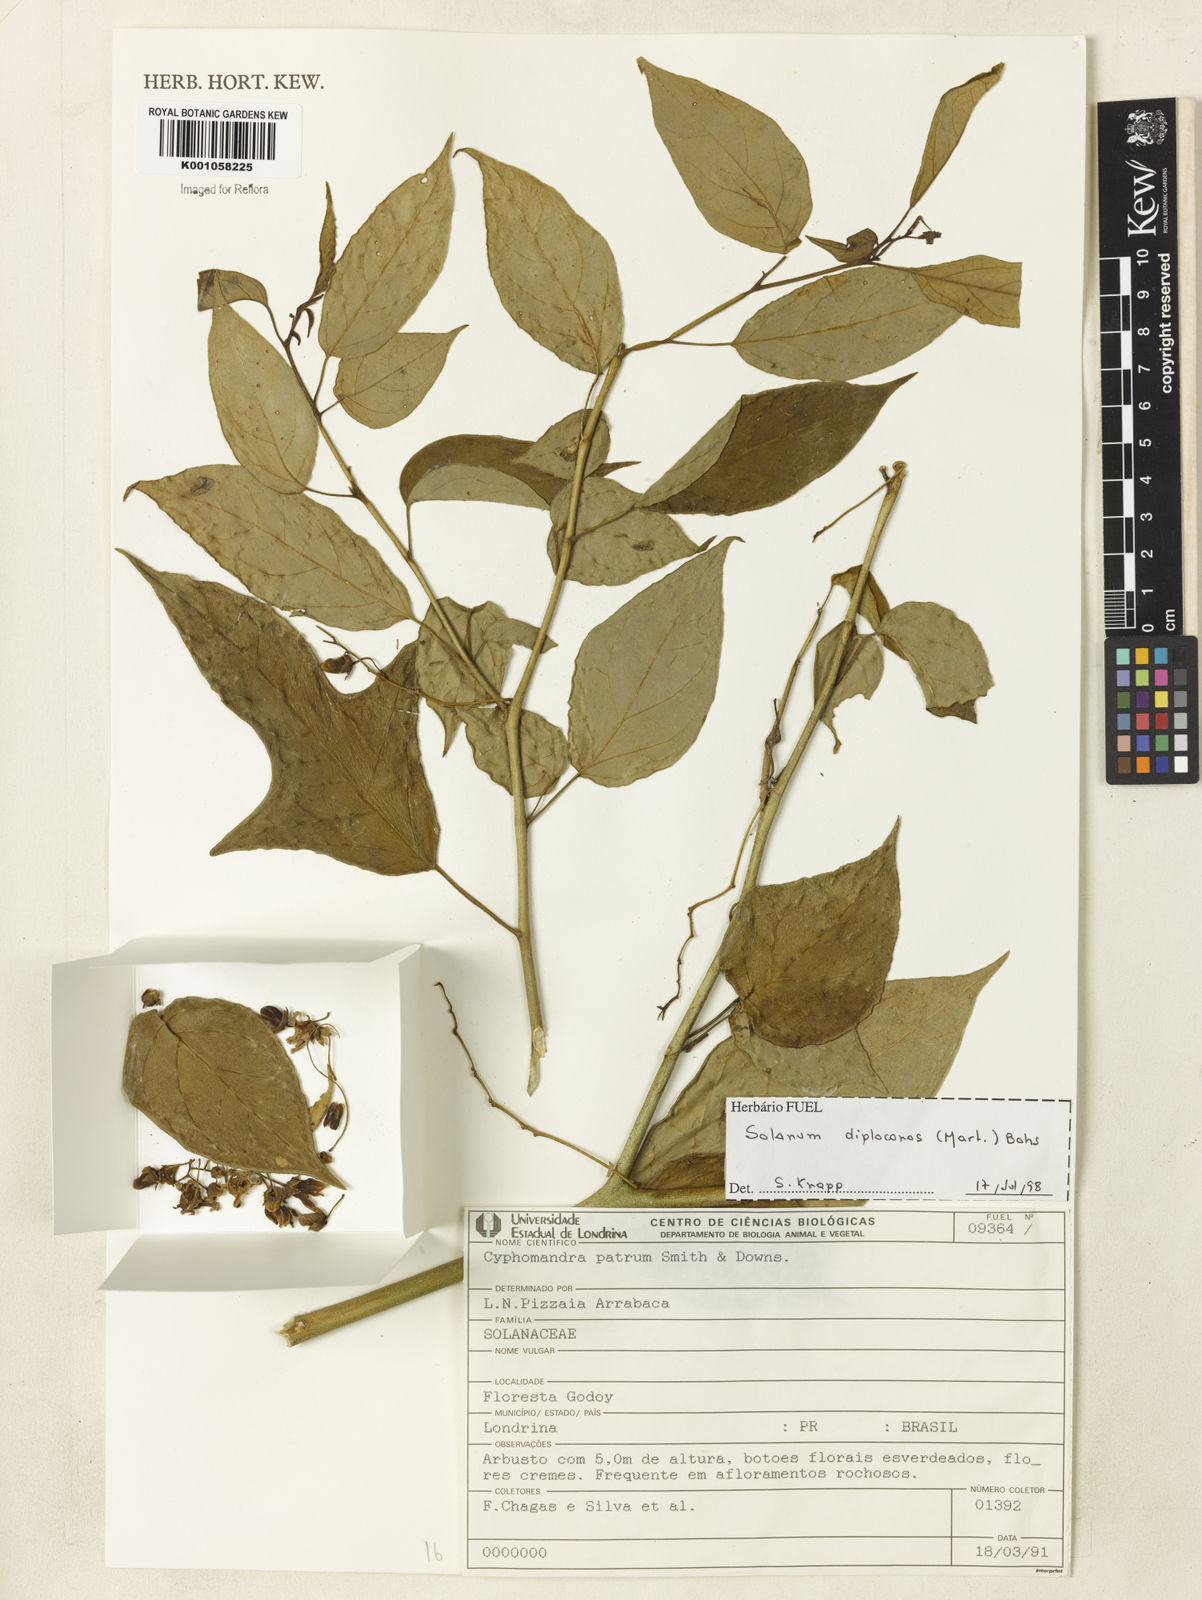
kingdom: Plantae
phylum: Tracheophyta
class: Magnoliopsida
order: Solanales
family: Solanaceae
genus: Solanum
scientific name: Solanum diploconos
